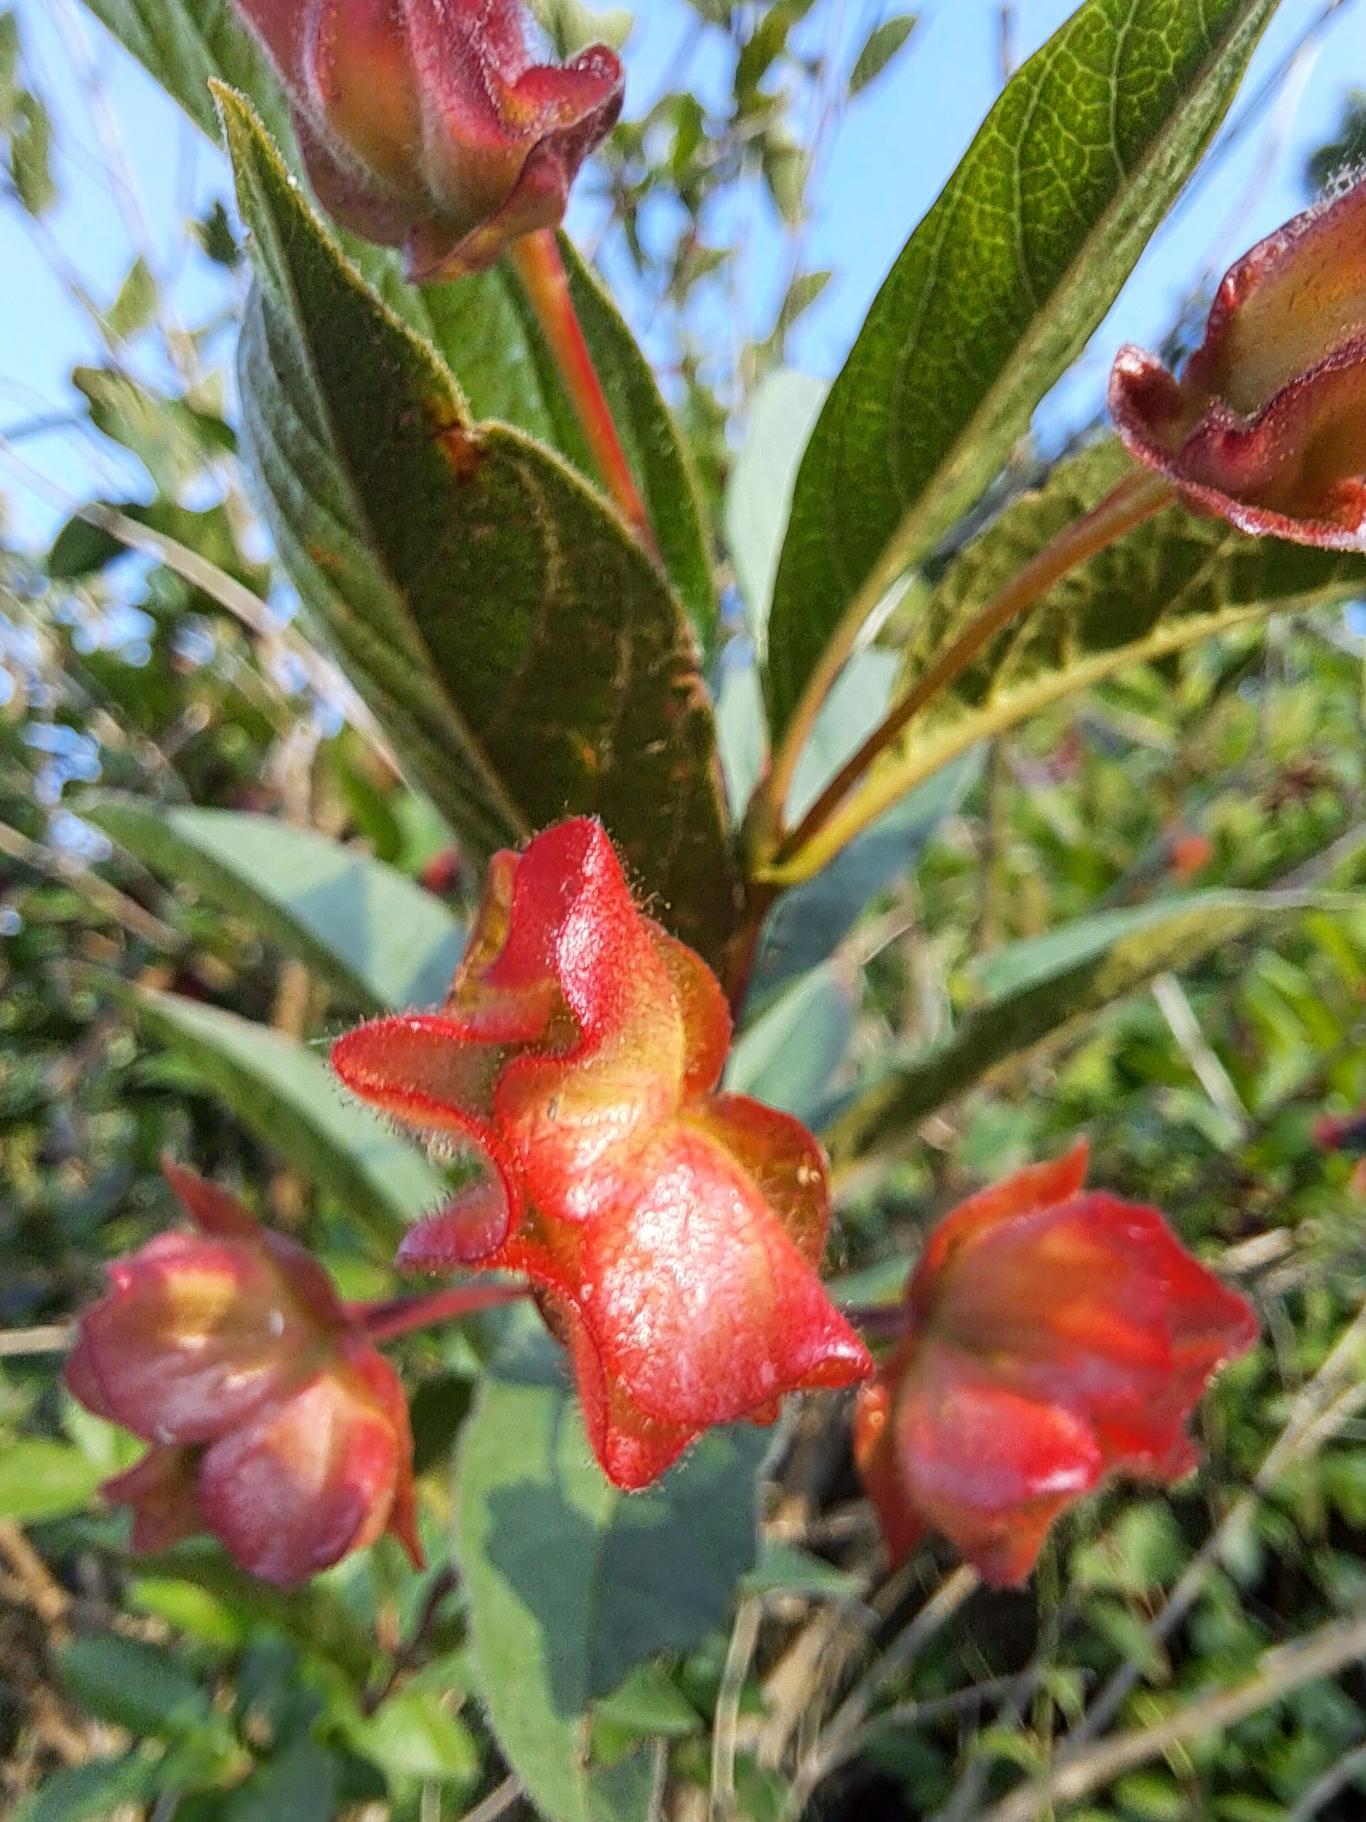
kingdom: Plantae
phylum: Tracheophyta
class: Magnoliopsida
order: Dipsacales
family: Caprifoliaceae
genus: Lonicera
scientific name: Lonicera involucrata
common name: Svøb-gedeblad
